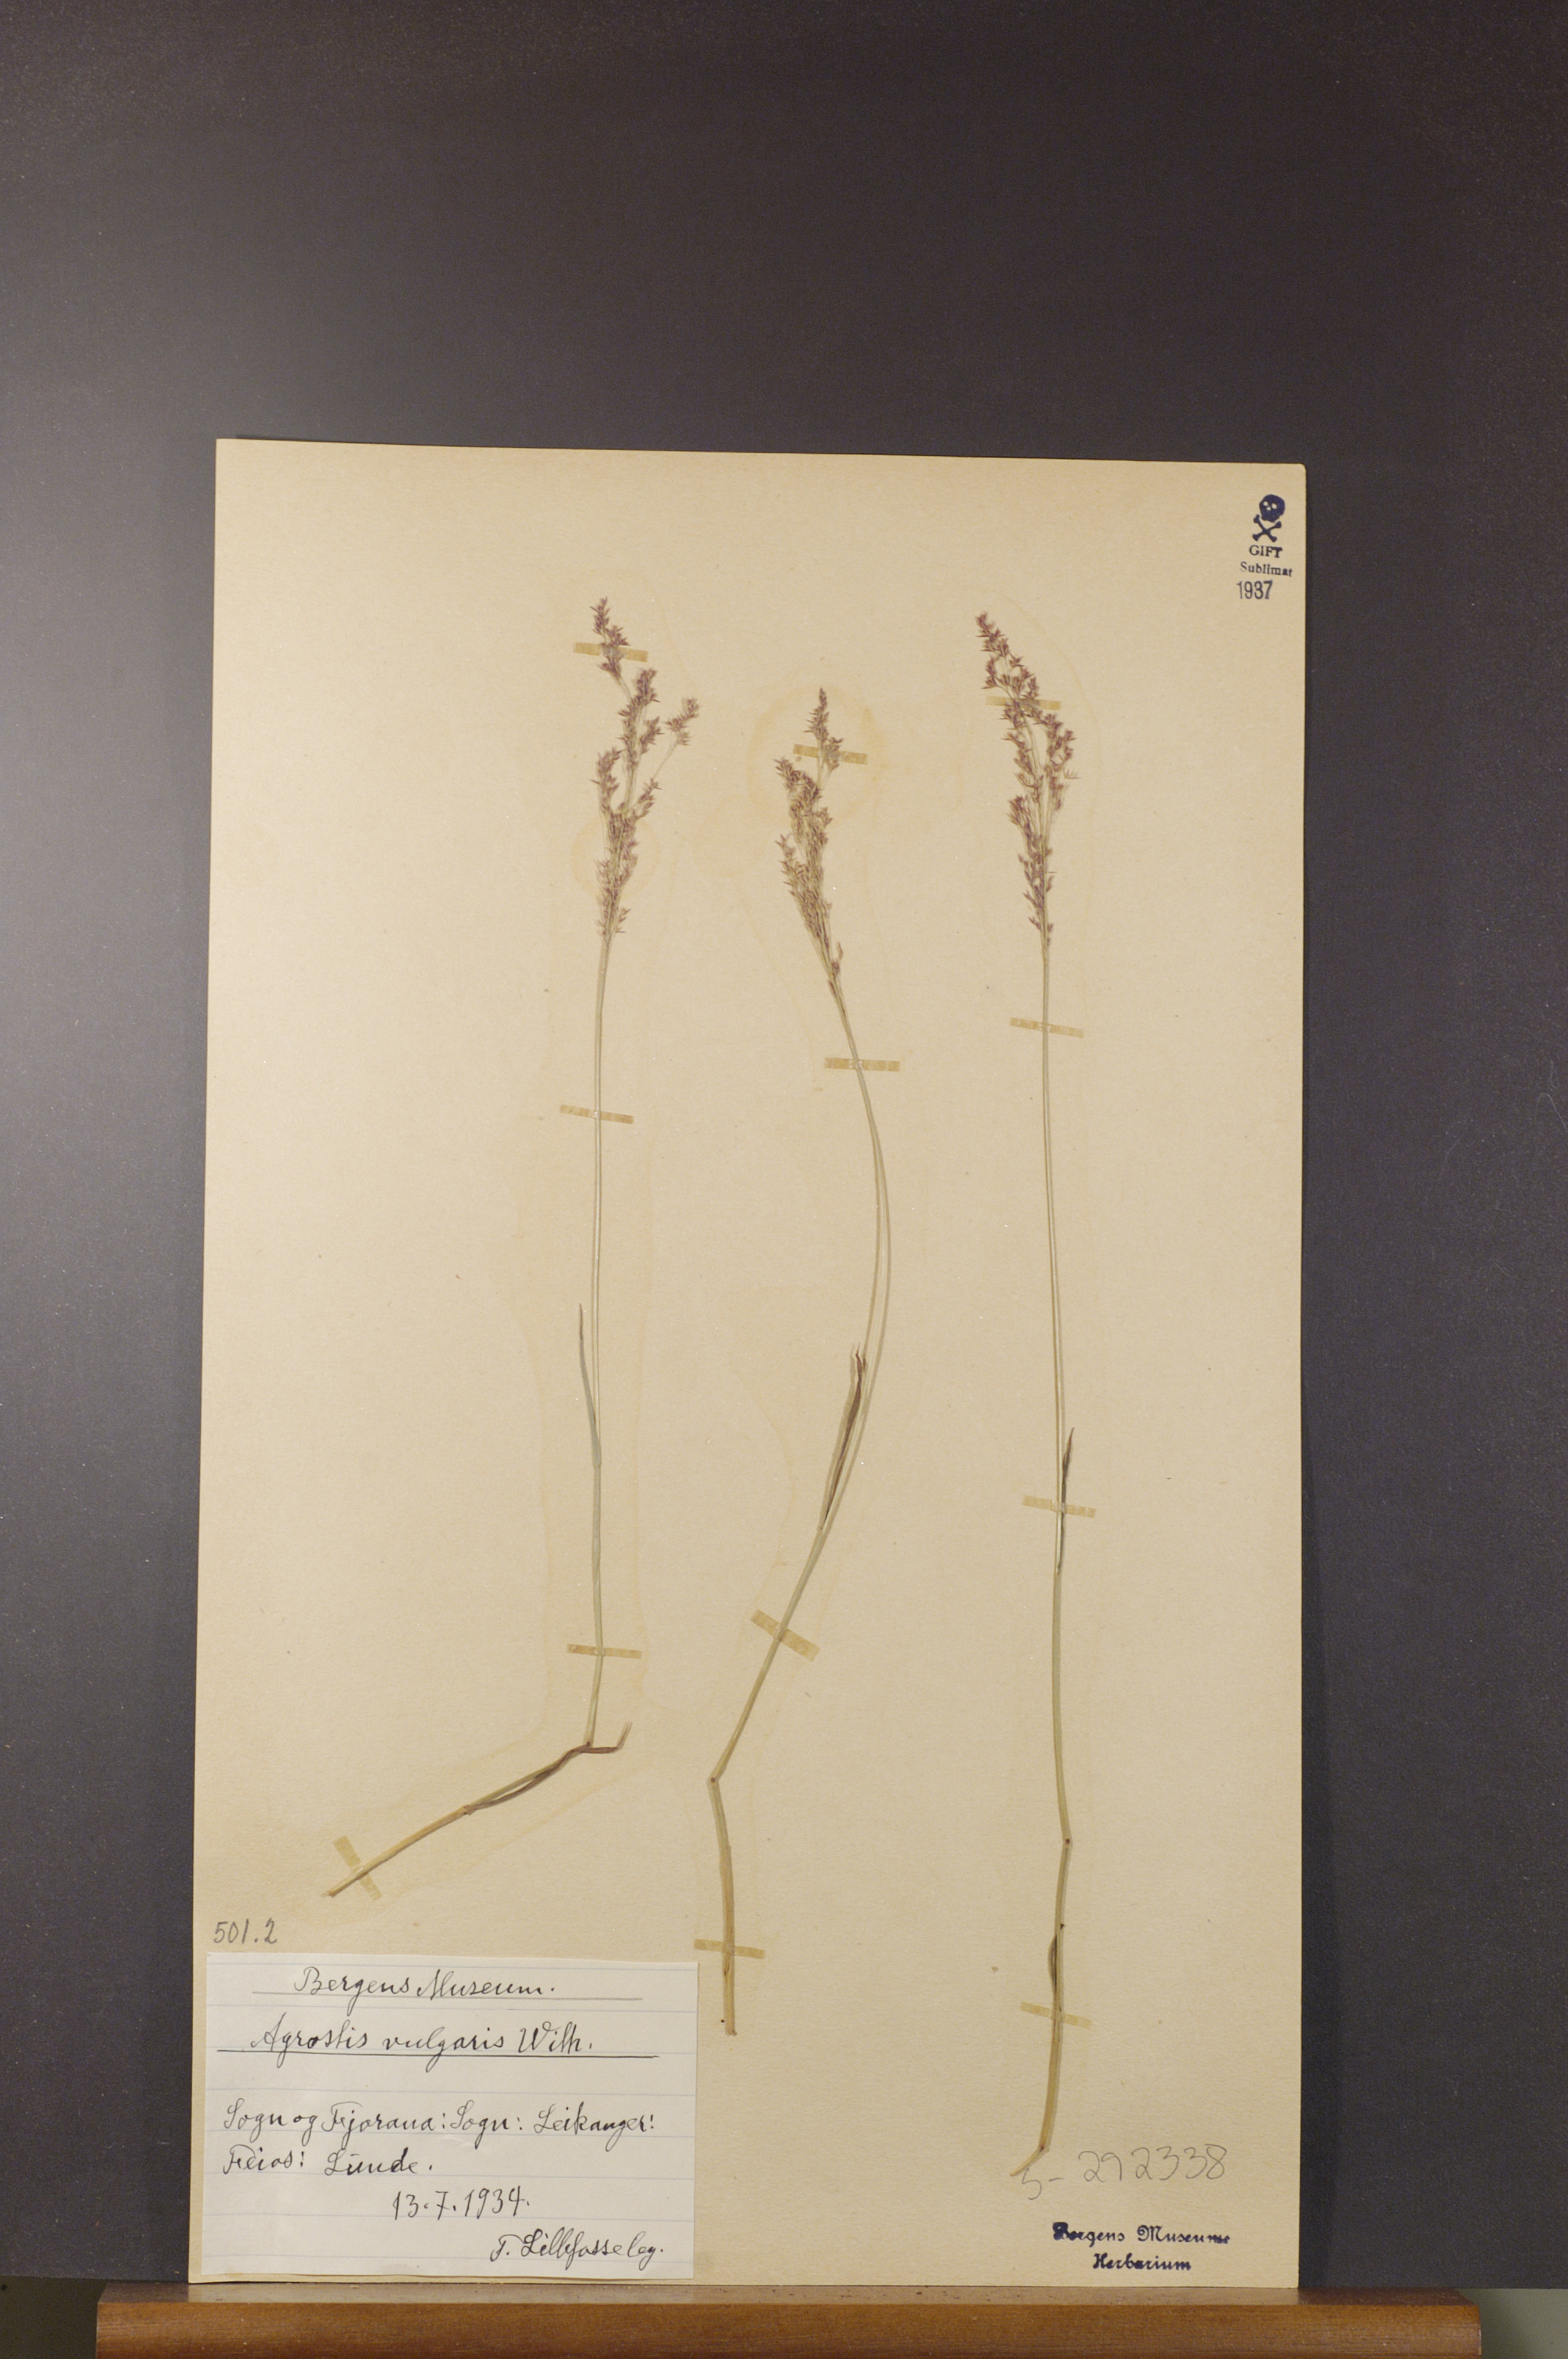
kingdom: Plantae
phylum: Tracheophyta
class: Liliopsida
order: Poales
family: Poaceae
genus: Agrostis
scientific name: Agrostis capillaris
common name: Colonial bentgrass
